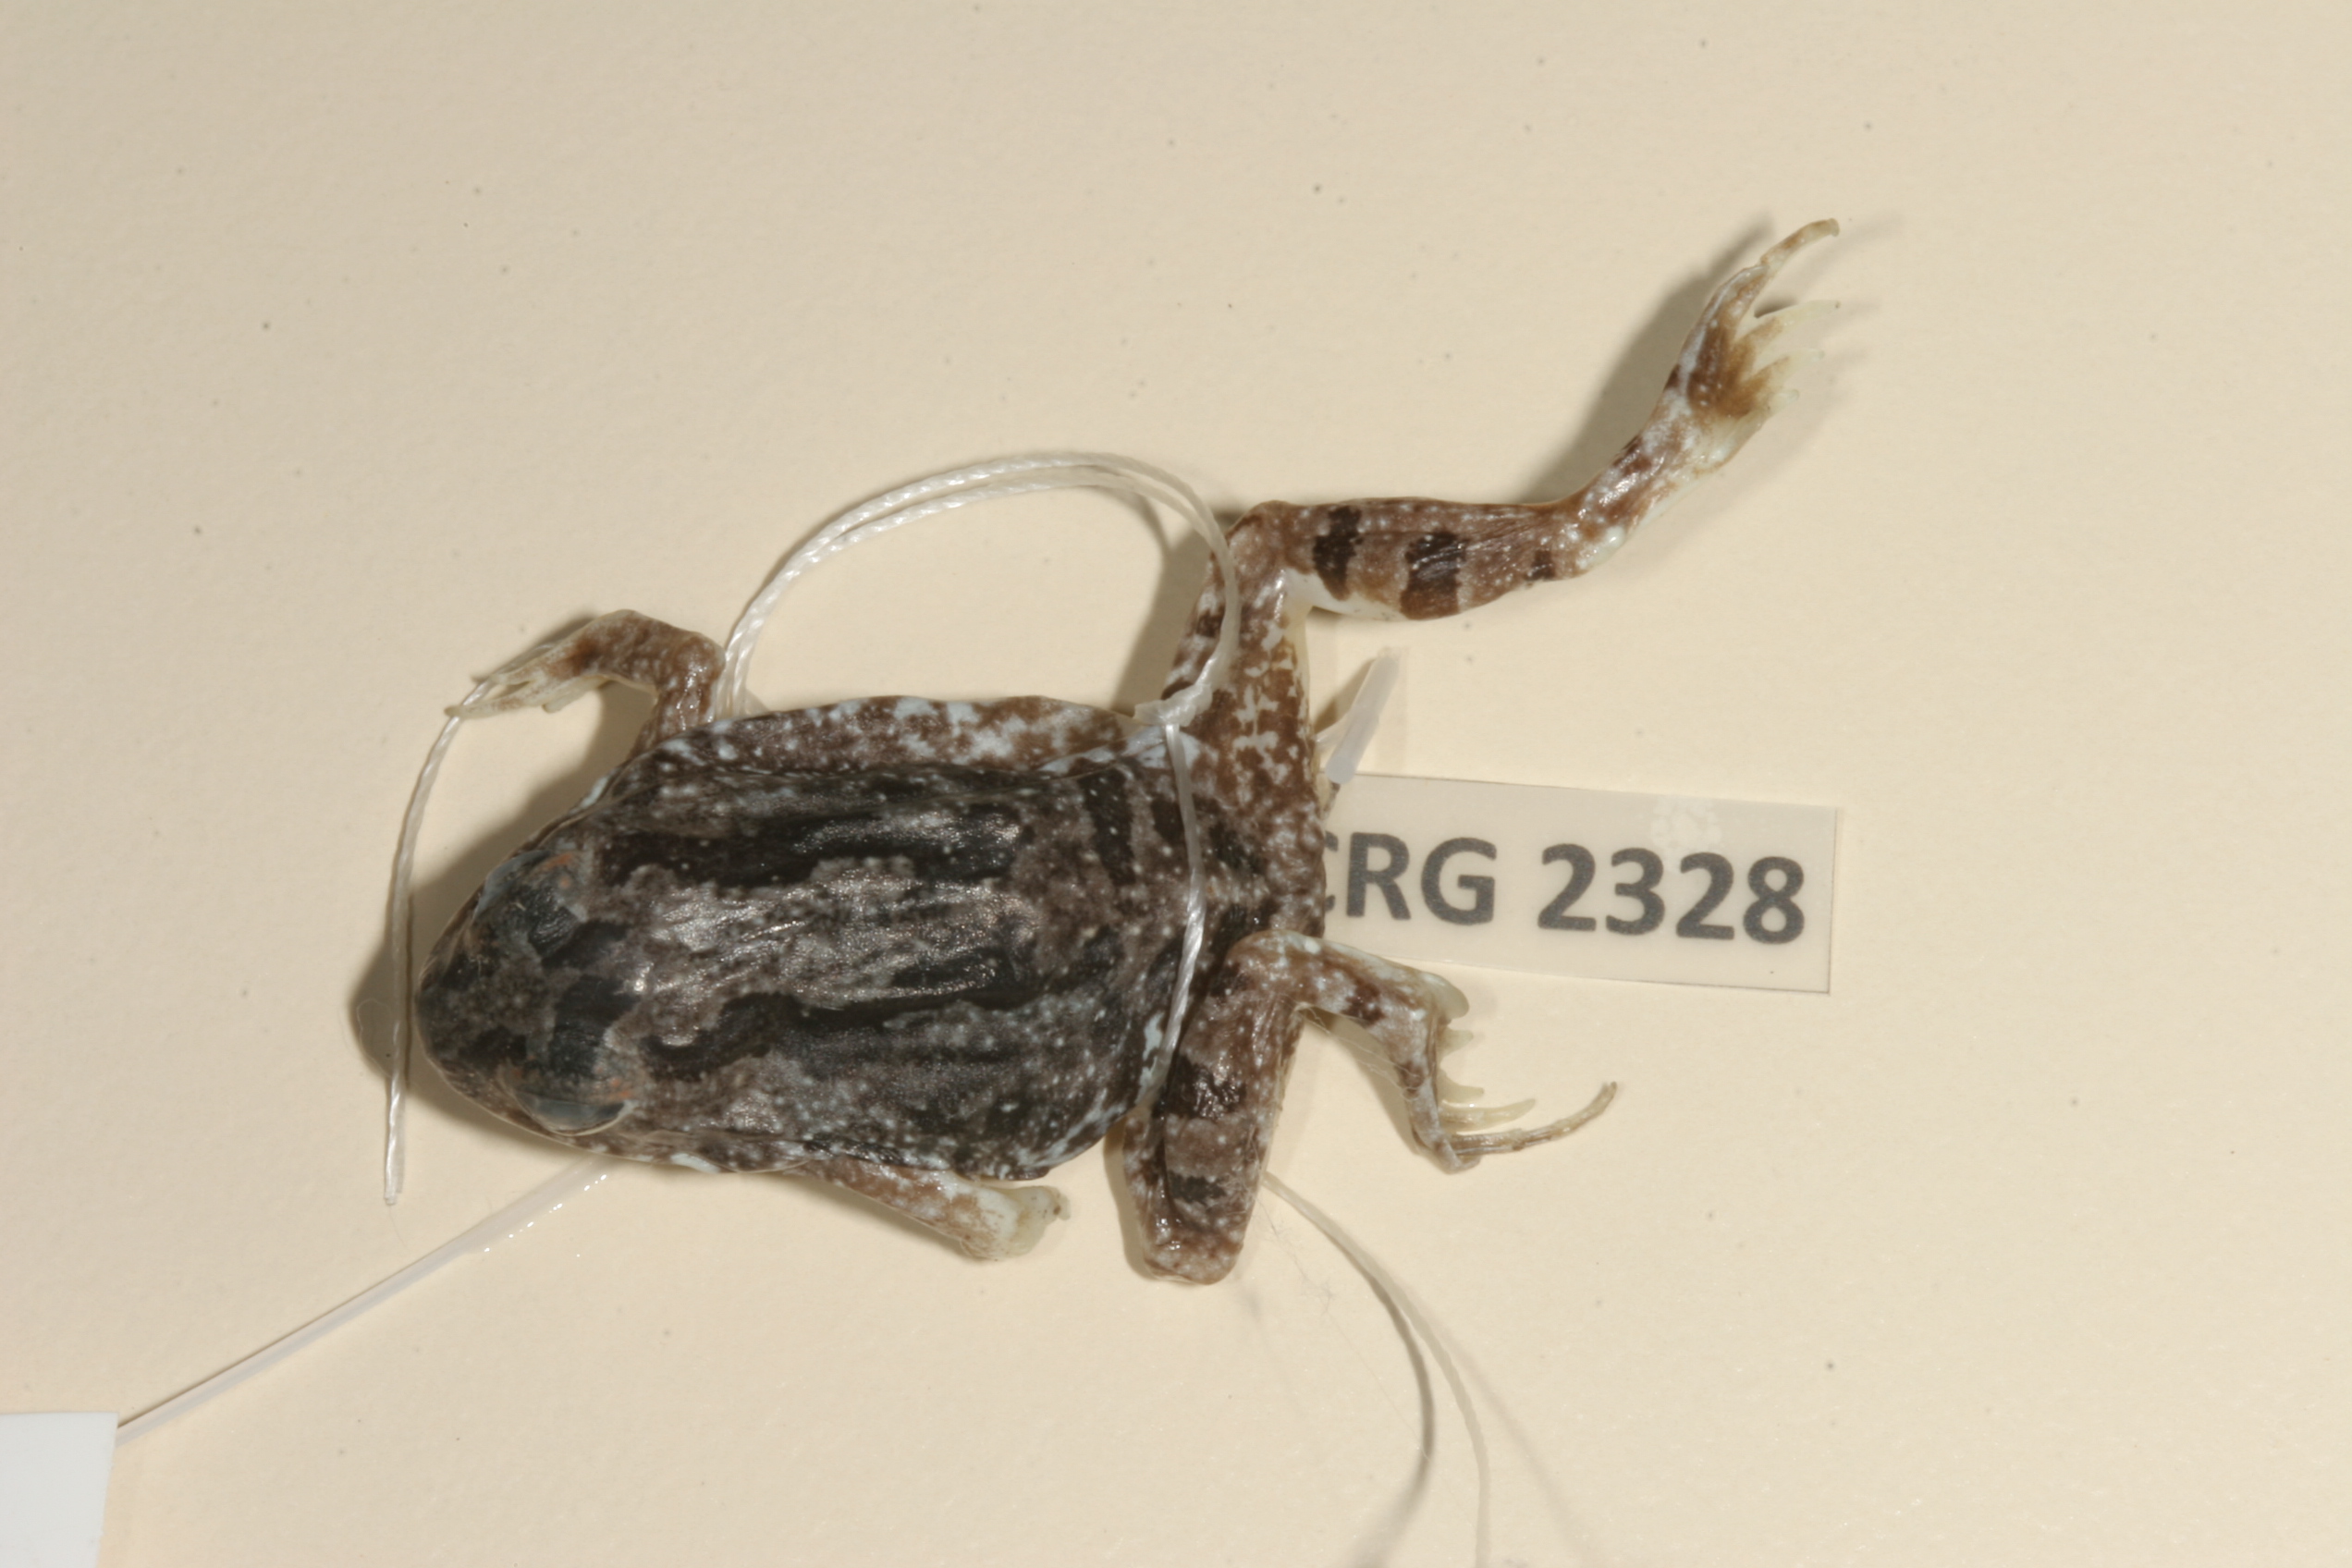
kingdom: Animalia
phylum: Chordata
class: Amphibia
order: Anura
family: Pyxicephalidae
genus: Tomopterna
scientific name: Tomopterna cryptotis
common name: Catequero bullfrog
